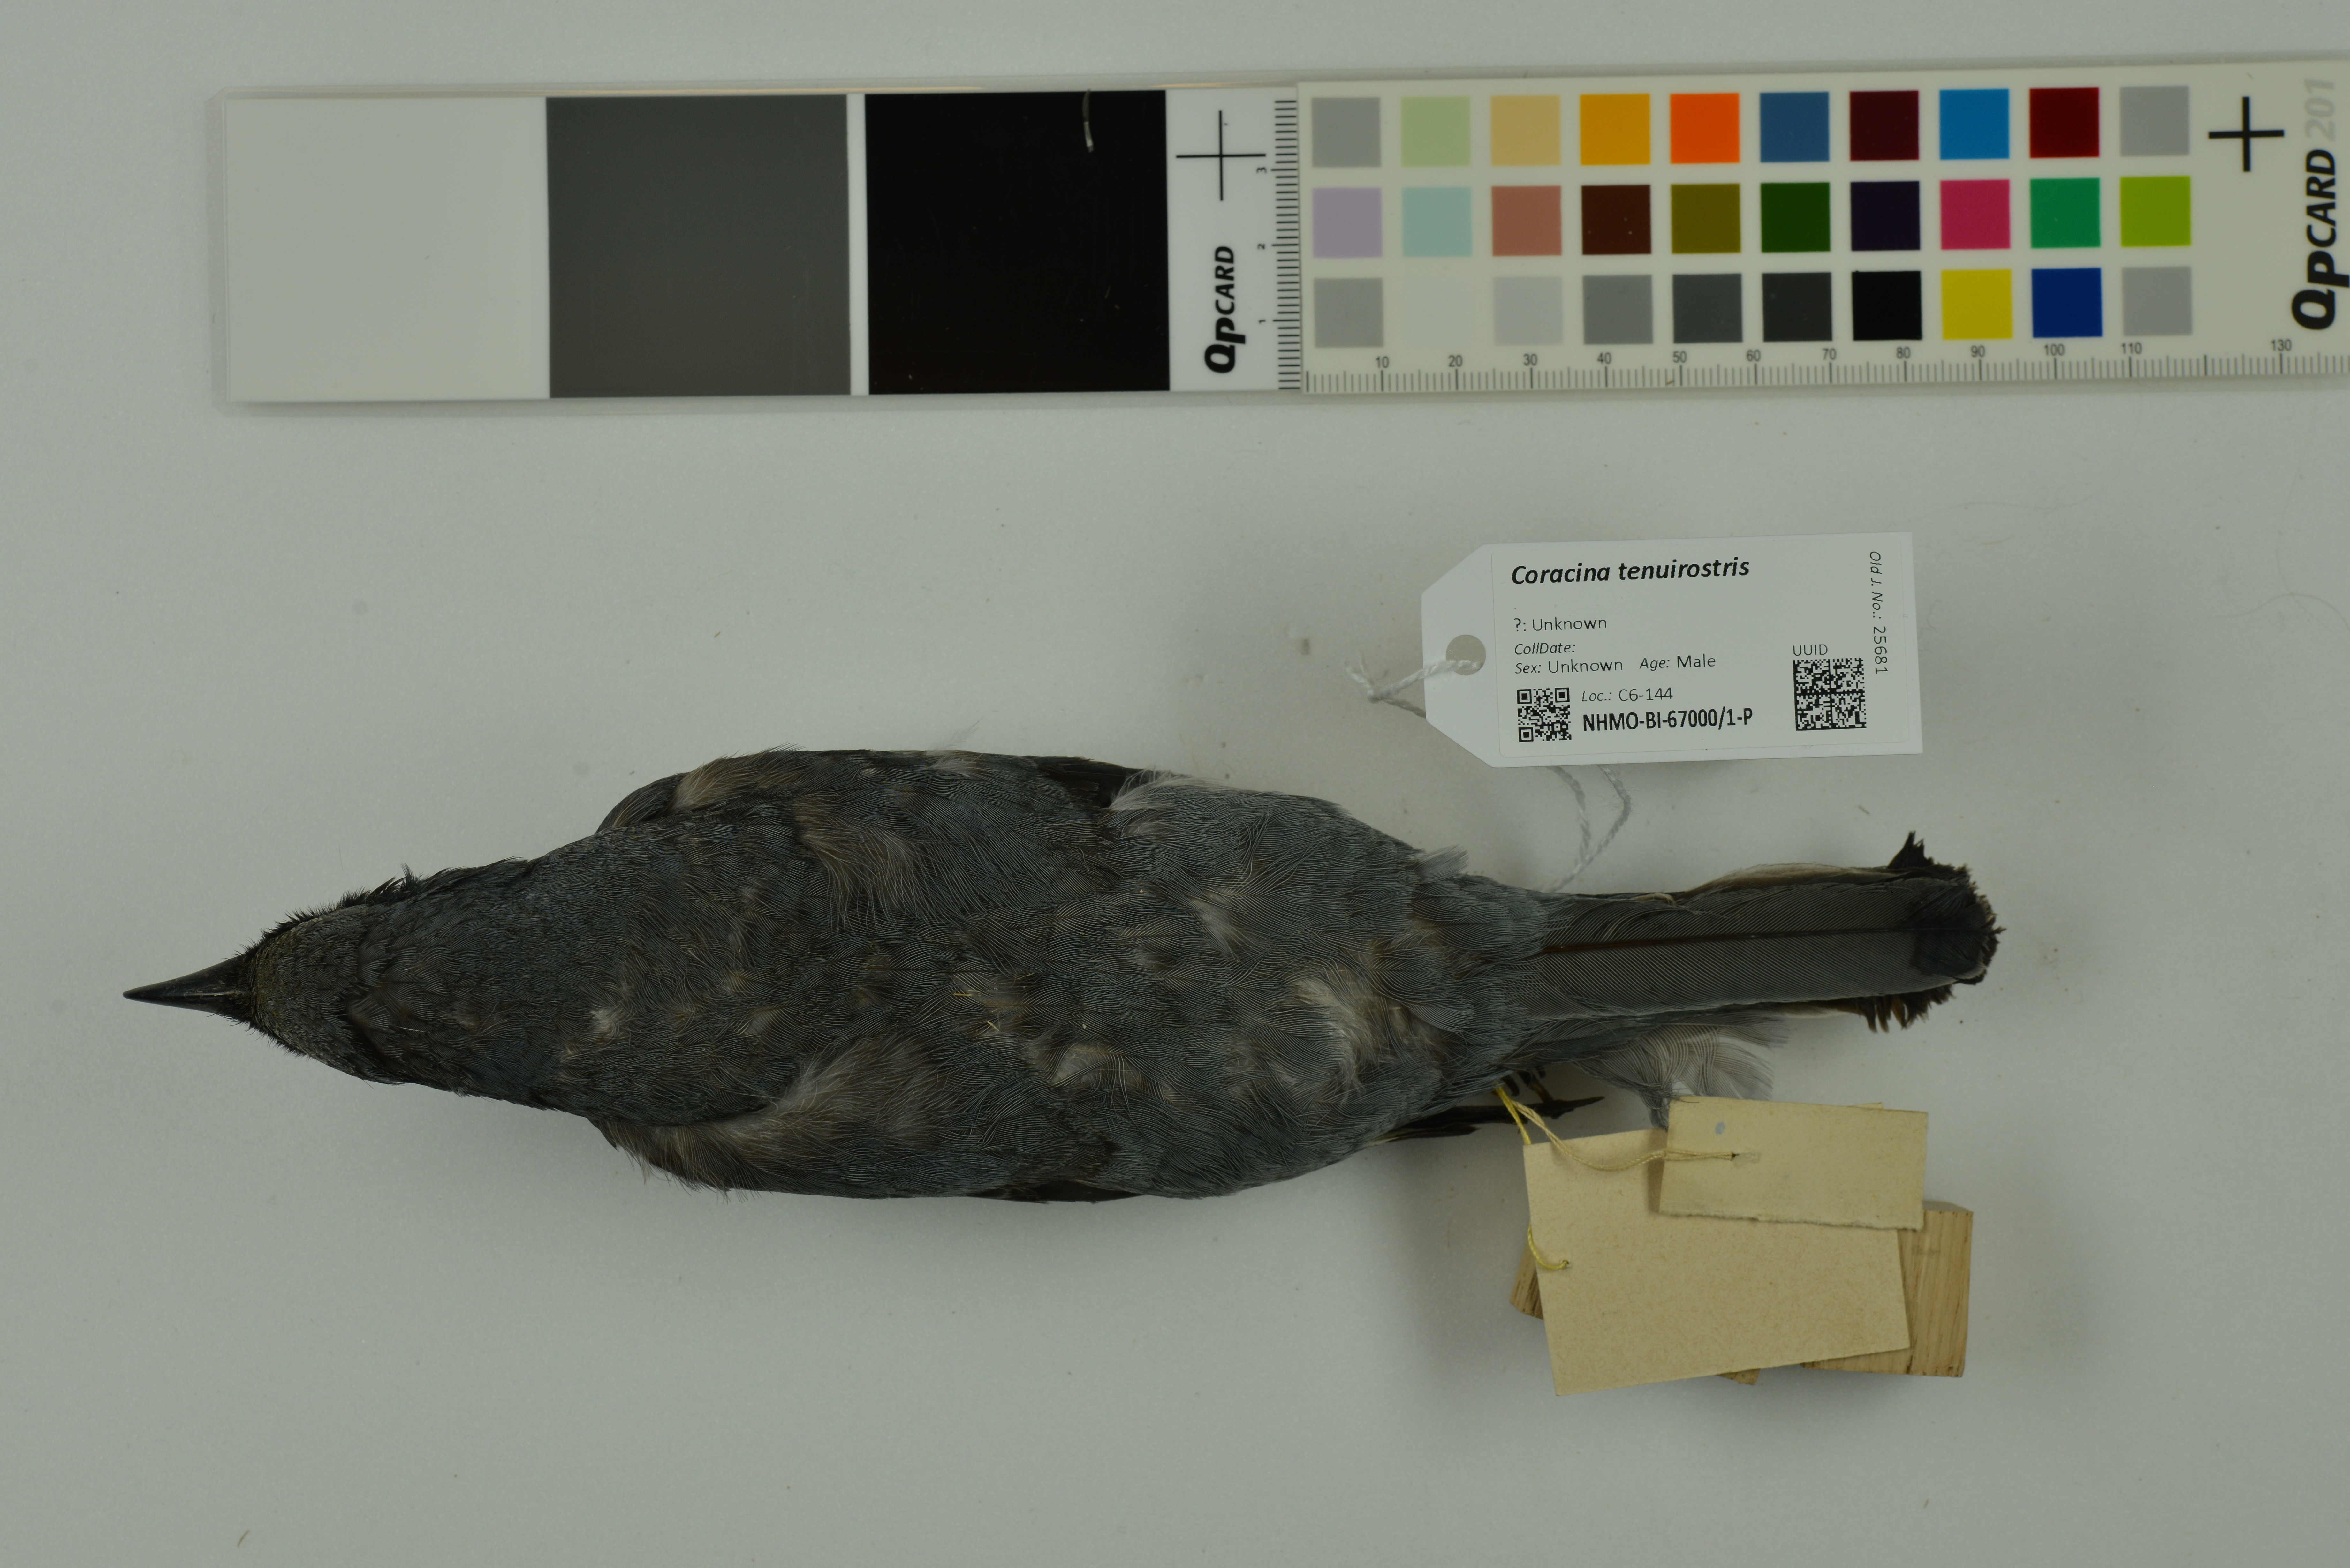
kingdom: Animalia
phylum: Chordata
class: Aves
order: Passeriformes
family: Campephagidae
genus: Edolisoma
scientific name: Edolisoma tenuirostre
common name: Common cicadabird
